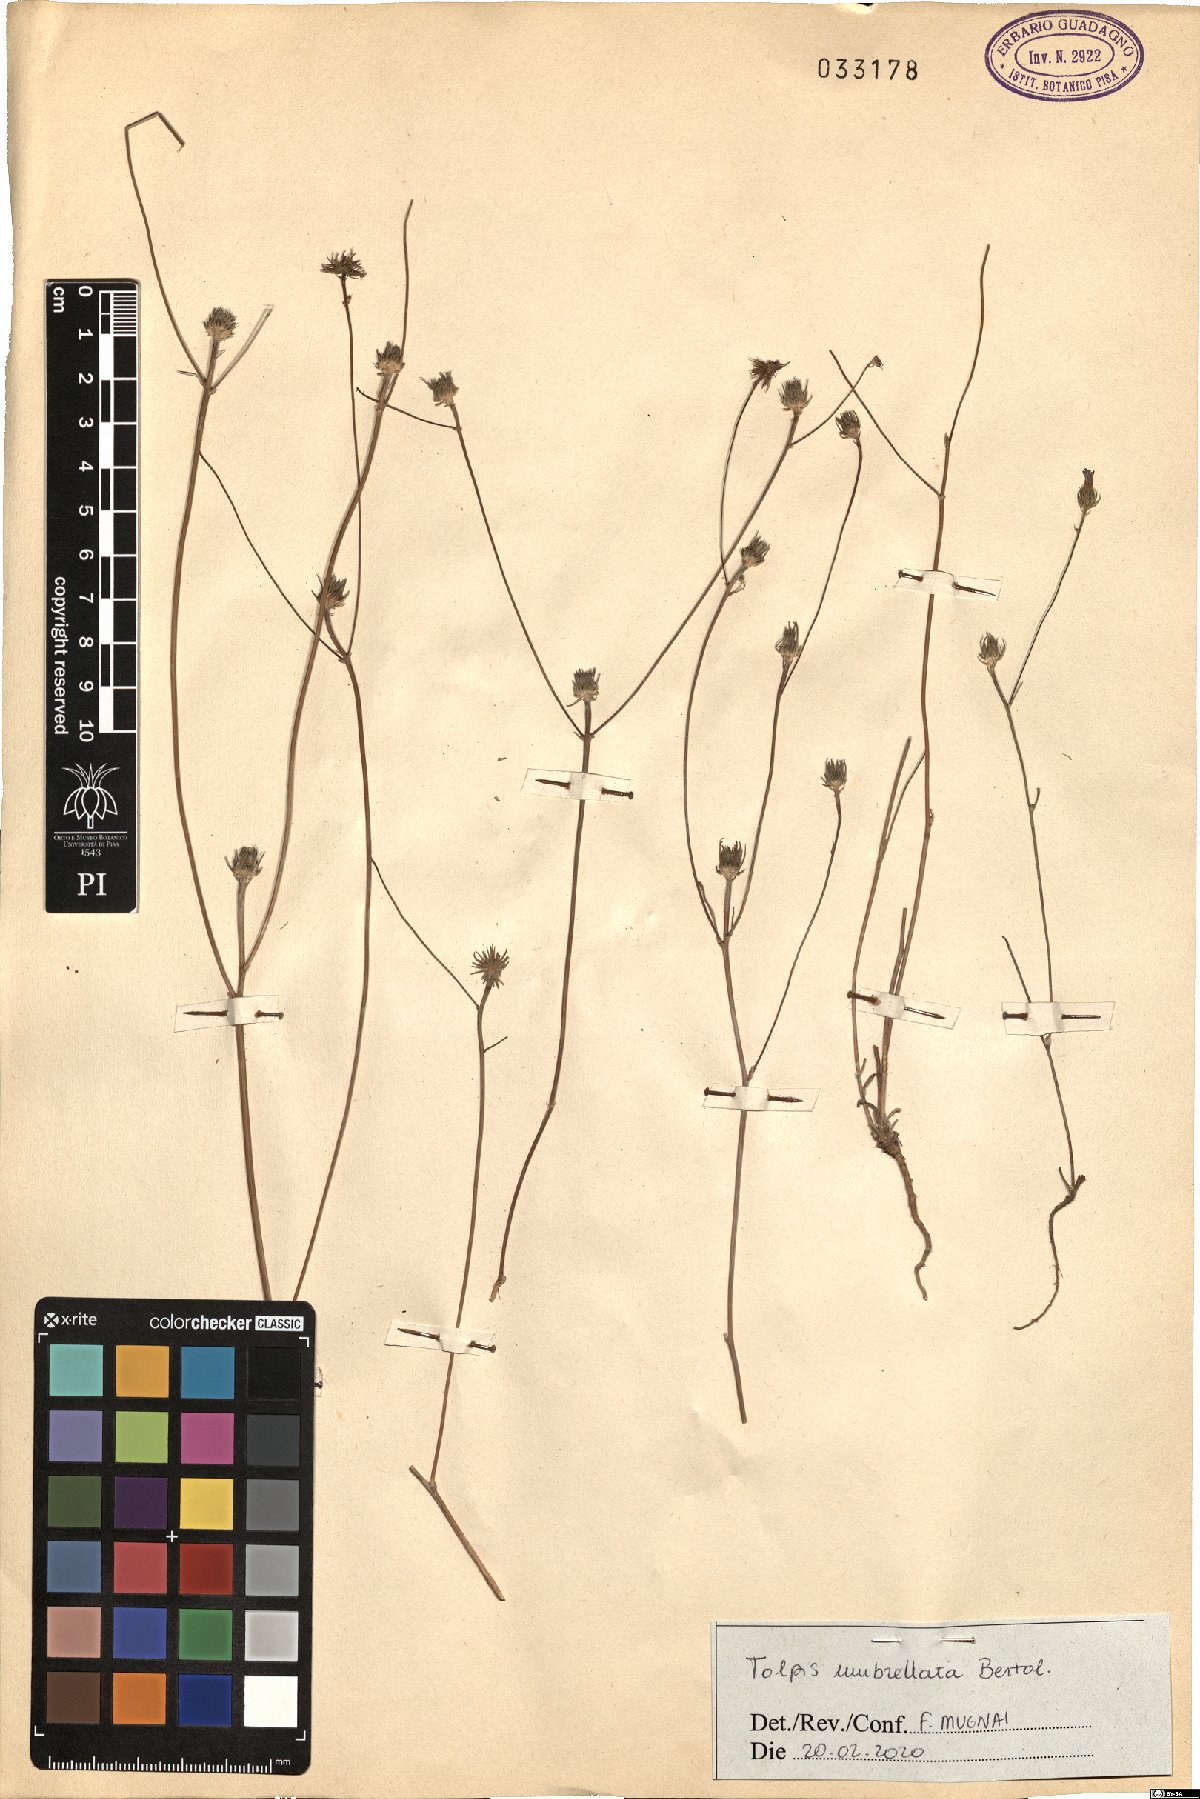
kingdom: Plantae
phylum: Tracheophyta
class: Magnoliopsida
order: Asterales
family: Asteraceae
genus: Tolpis
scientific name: Tolpis umbellata
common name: Yellow hawkweed
